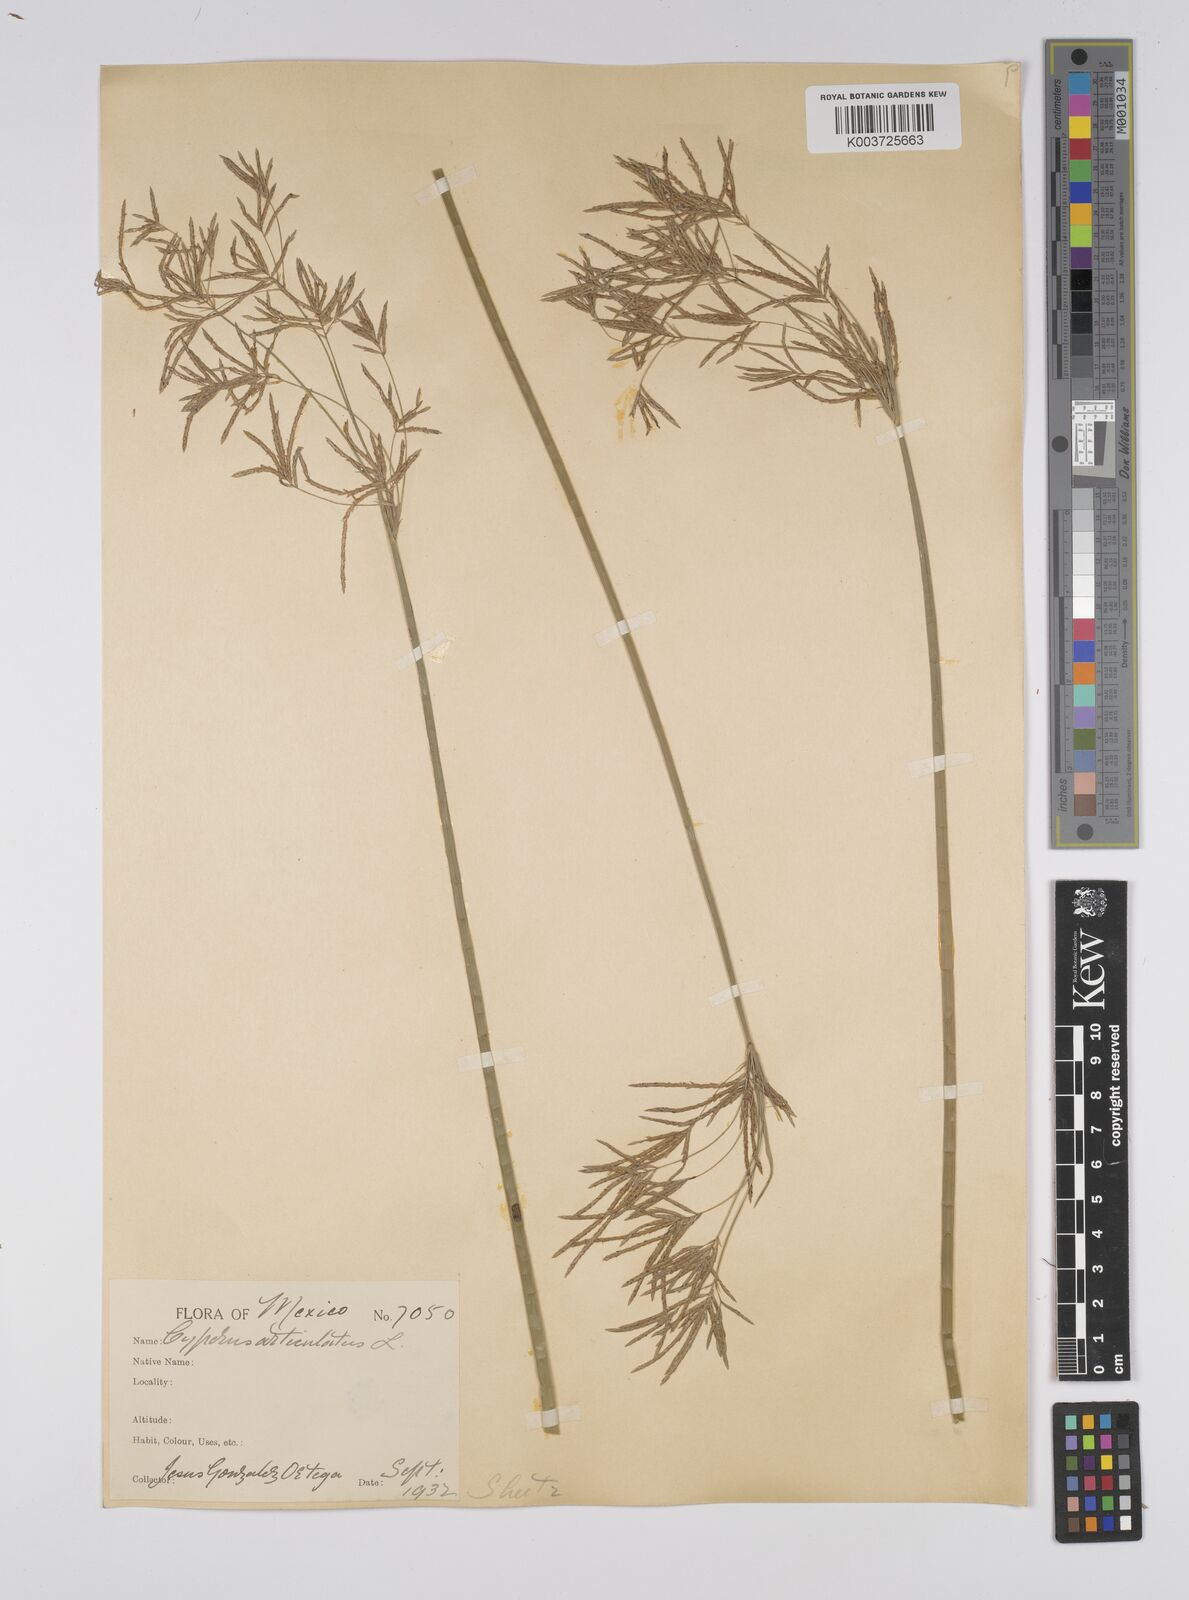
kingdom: Plantae
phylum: Tracheophyta
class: Liliopsida
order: Poales
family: Cyperaceae
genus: Cyperus
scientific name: Cyperus articulatus
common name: Jointed flatsedge
